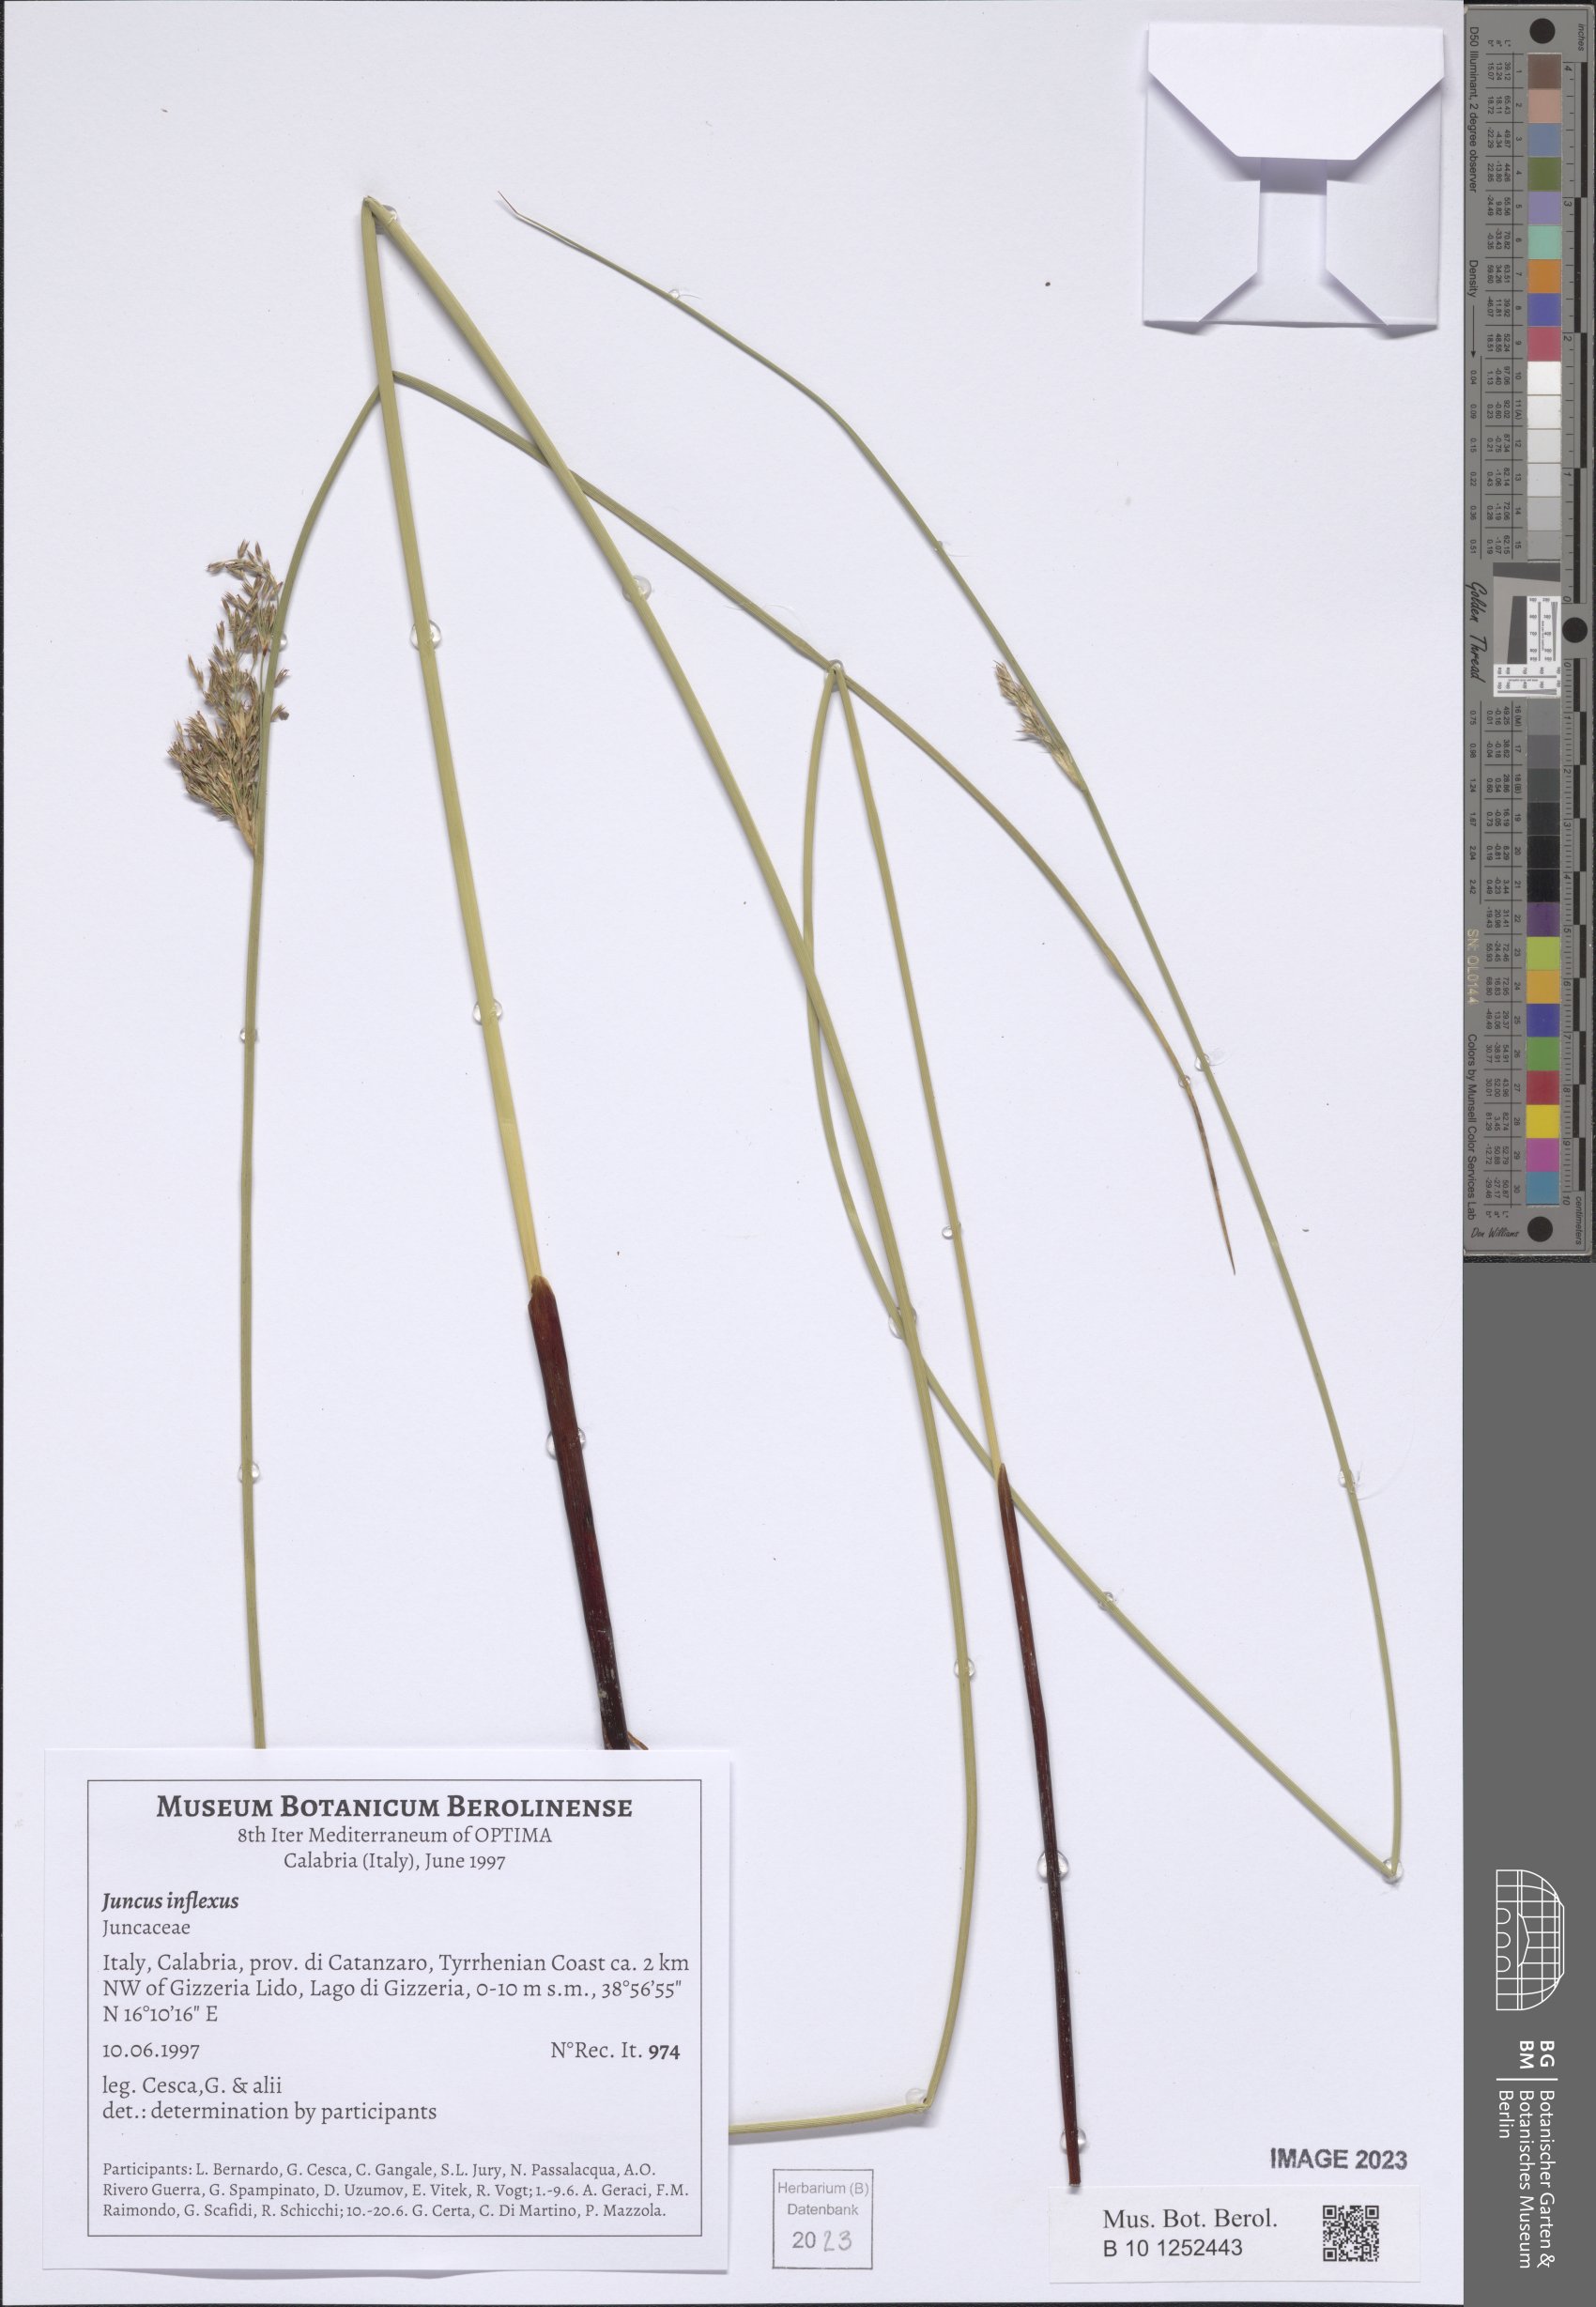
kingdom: Plantae
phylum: Tracheophyta
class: Liliopsida
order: Poales
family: Juncaceae
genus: Juncus
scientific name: Juncus inflexus
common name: Hard rush
